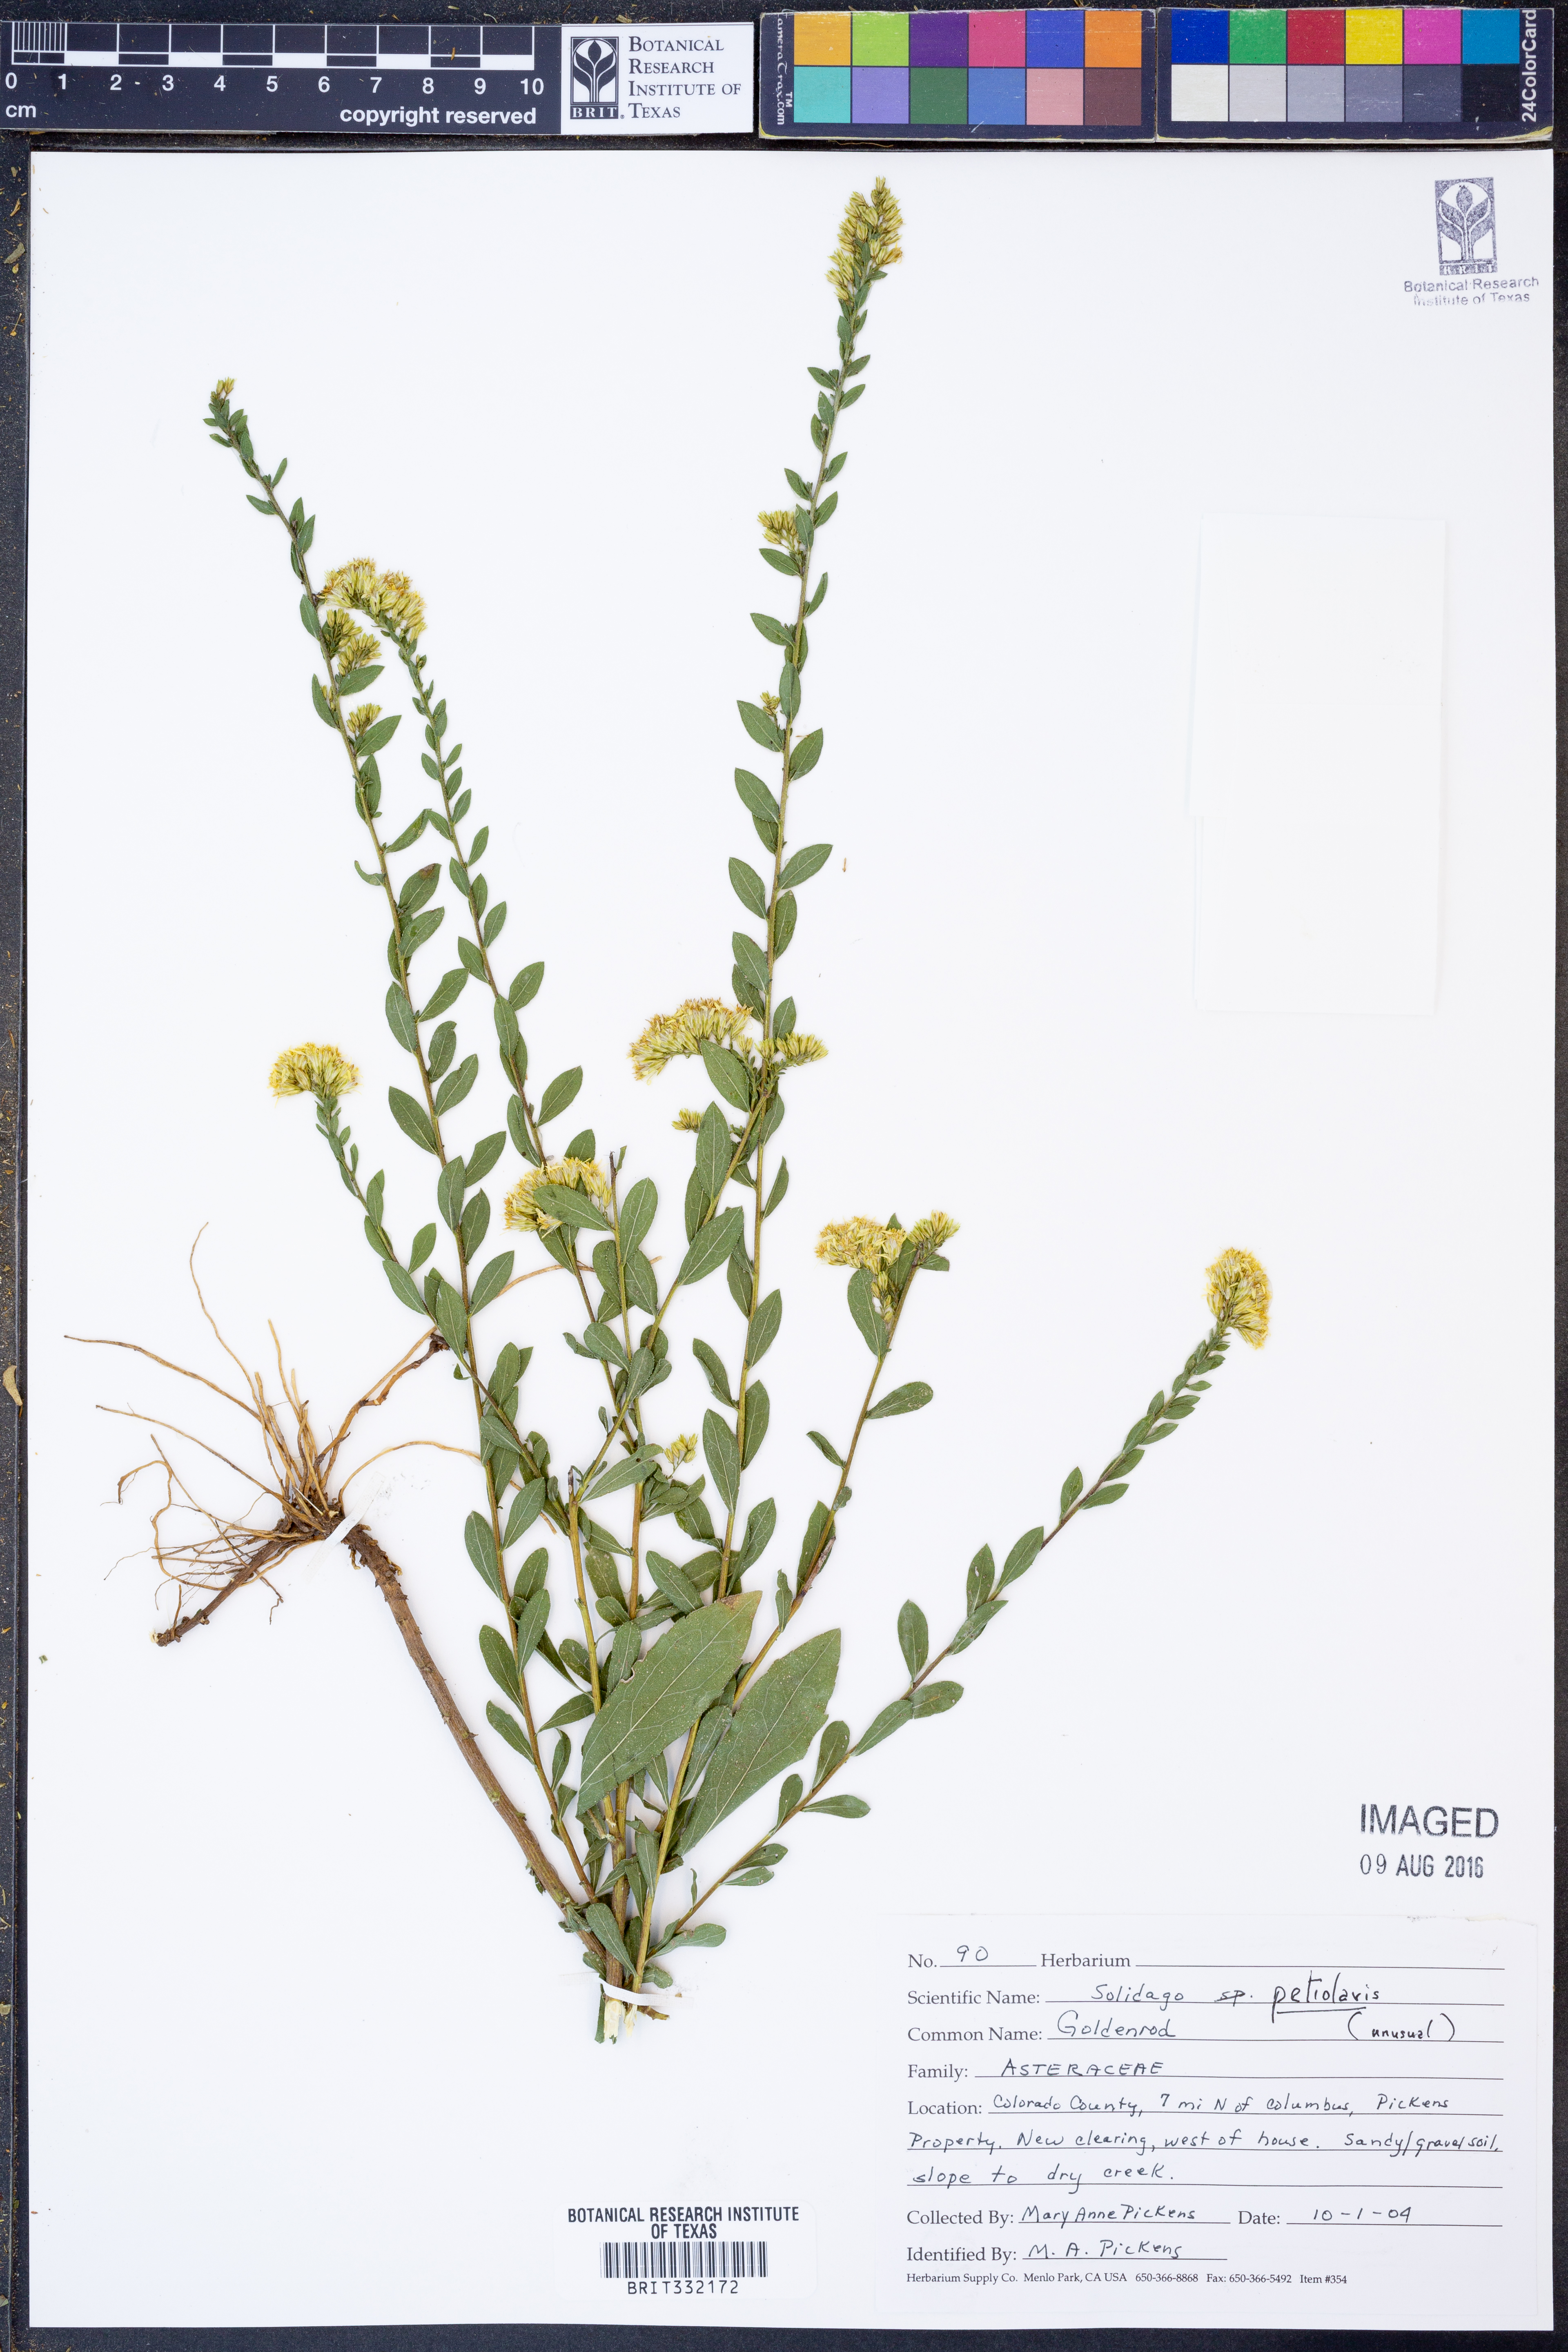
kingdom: Plantae
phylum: Tracheophyta
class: Magnoliopsida
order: Asterales
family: Asteraceae
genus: Solidago
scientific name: Solidago petiolaris
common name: Downy ragged goldenrod
